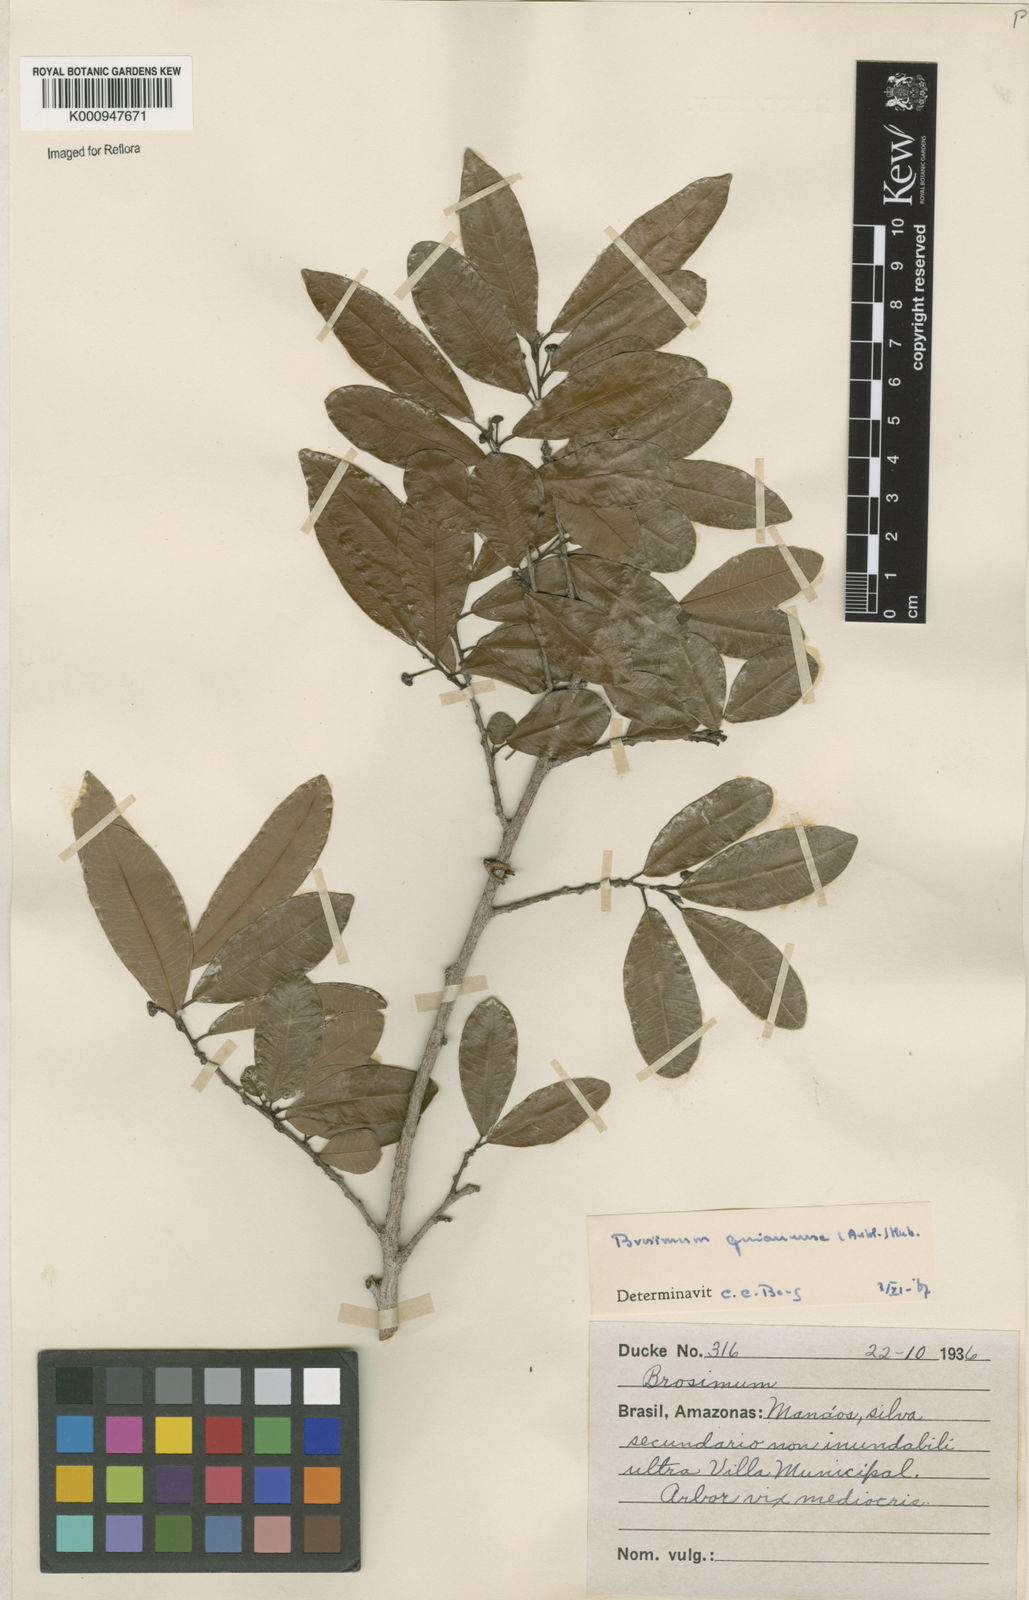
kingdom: Plantae
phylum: Tracheophyta
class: Magnoliopsida
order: Rosales
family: Moraceae
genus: Brosimum
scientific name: Brosimum
